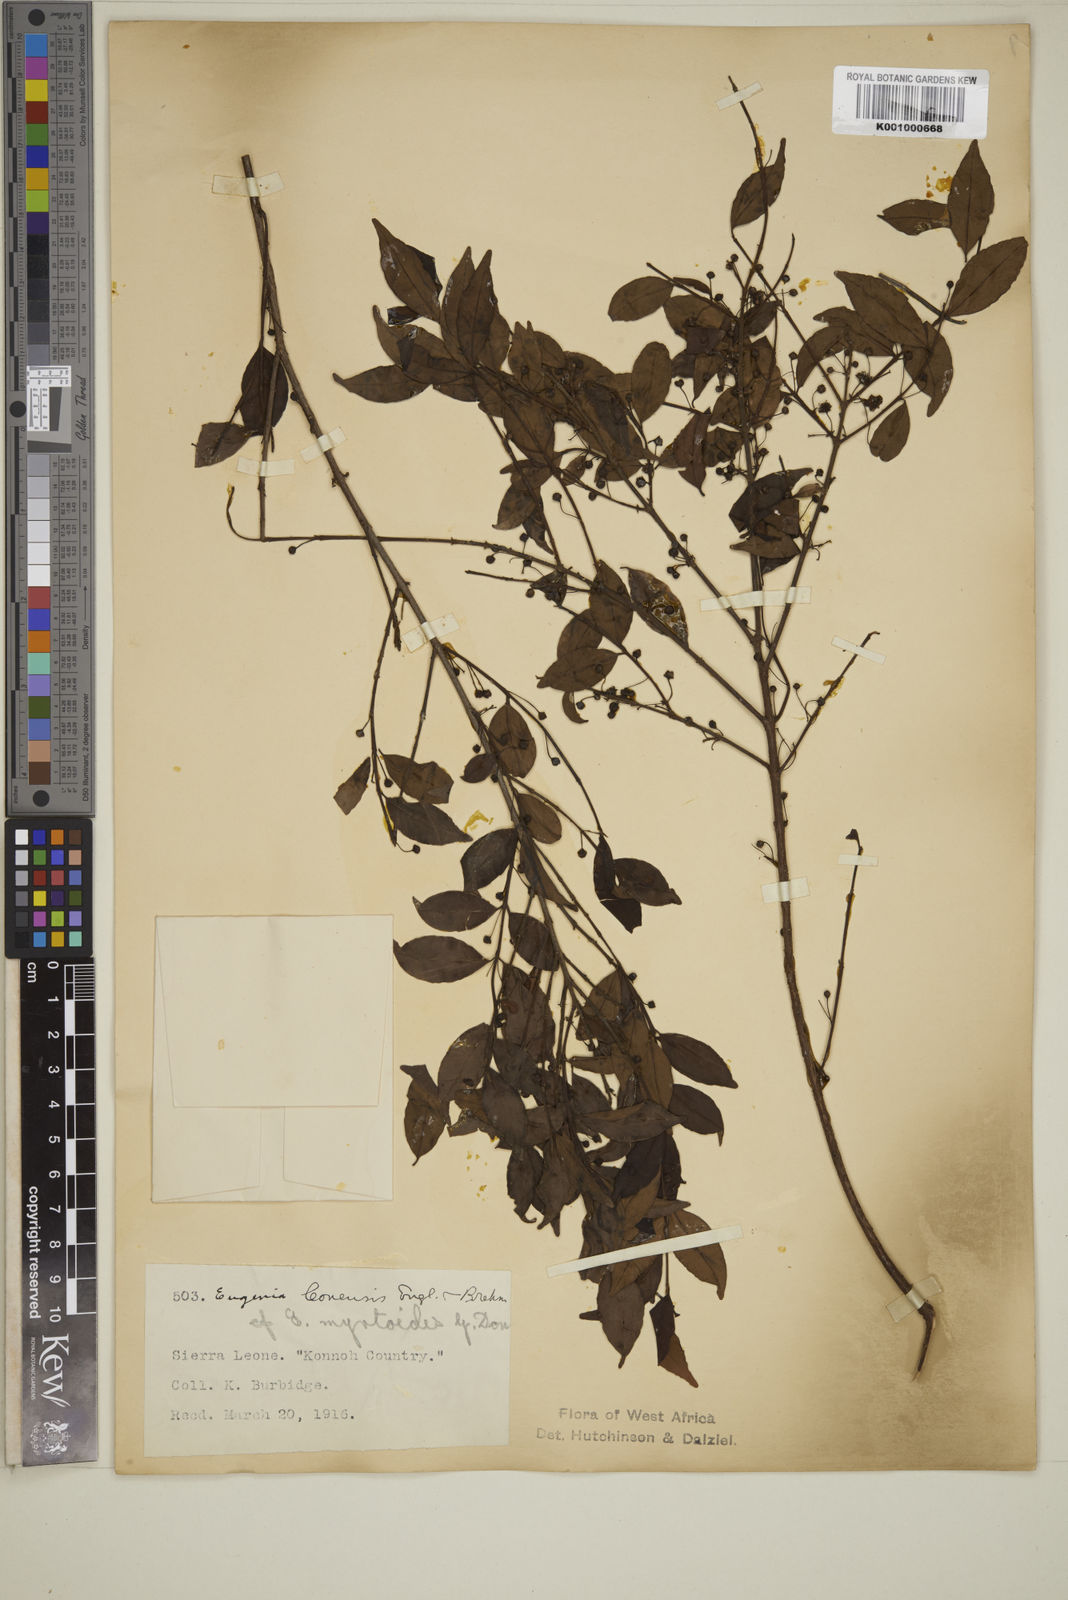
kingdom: Plantae
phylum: Tracheophyta
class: Magnoliopsida
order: Myrtales
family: Myrtaceae
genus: Eugenia
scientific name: Eugenia leonensis
